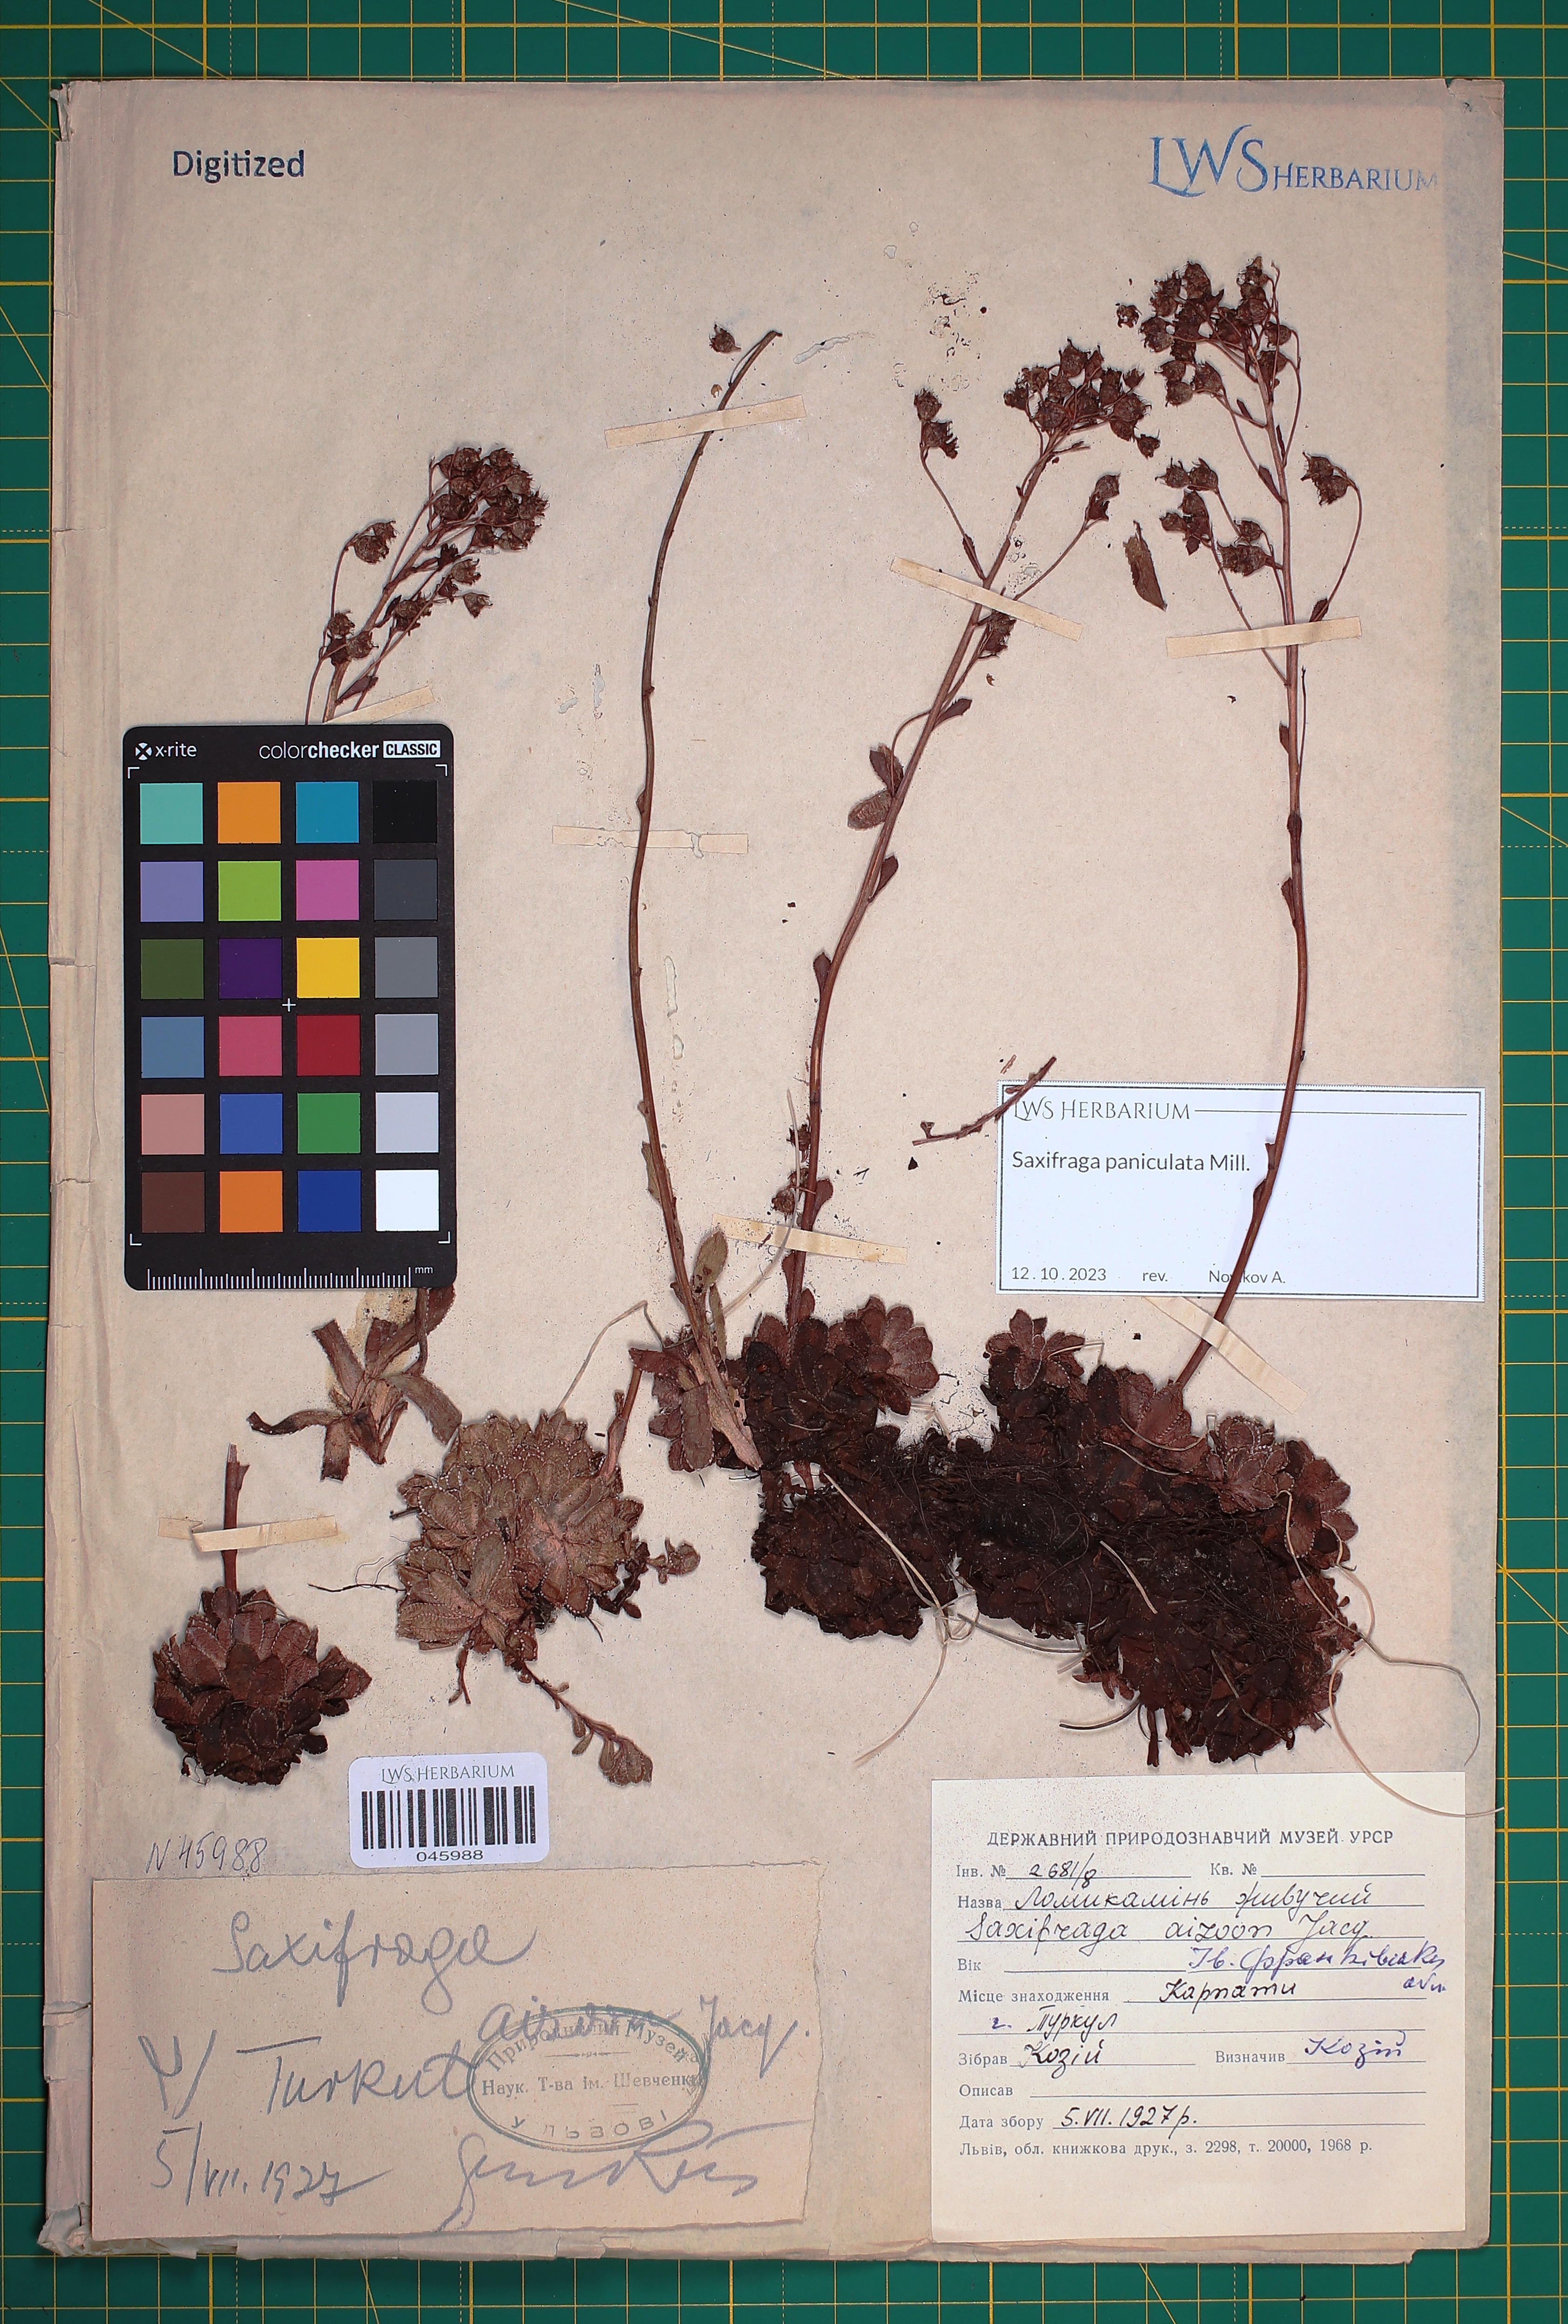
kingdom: Plantae
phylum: Tracheophyta
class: Magnoliopsida
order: Saxifragales
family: Saxifragaceae
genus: Saxifraga
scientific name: Saxifraga paniculata
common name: Livelong saxifrage
